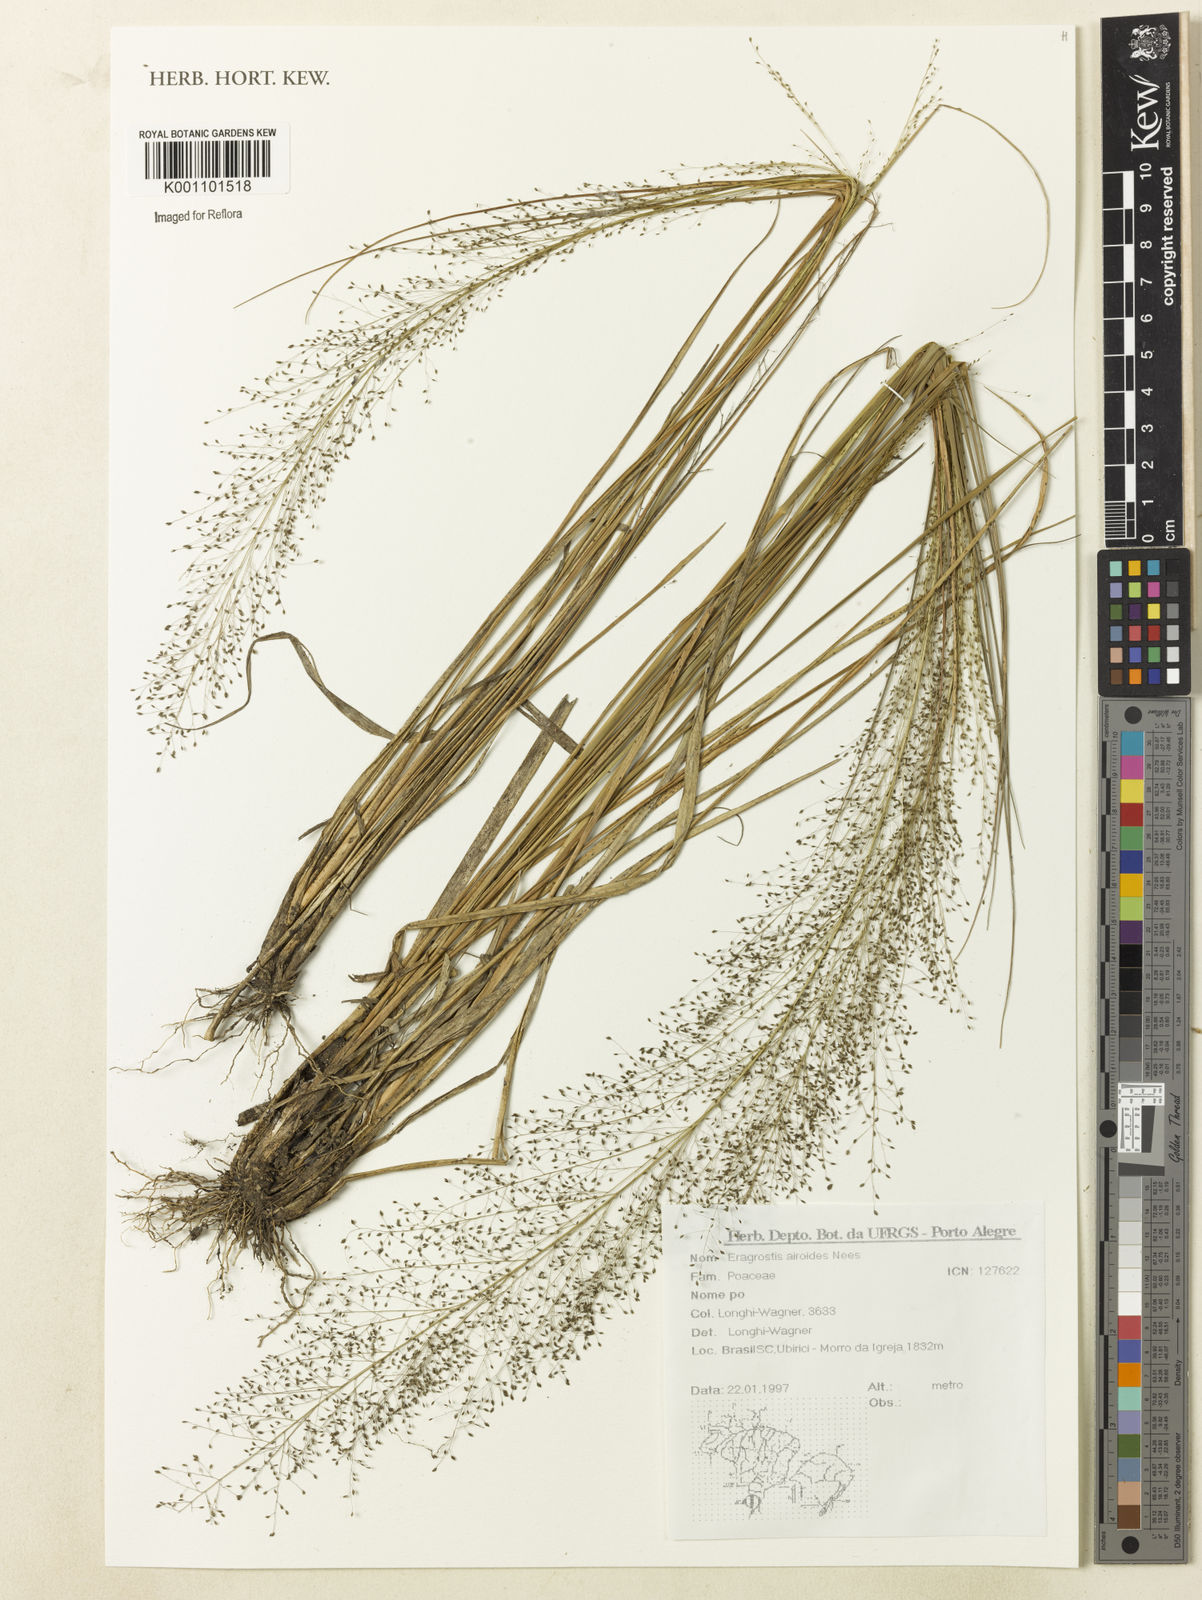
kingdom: Plantae
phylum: Tracheophyta
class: Liliopsida
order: Poales
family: Poaceae
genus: Eragrostis
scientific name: Eragrostis airoides
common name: Darnel lovegrass
